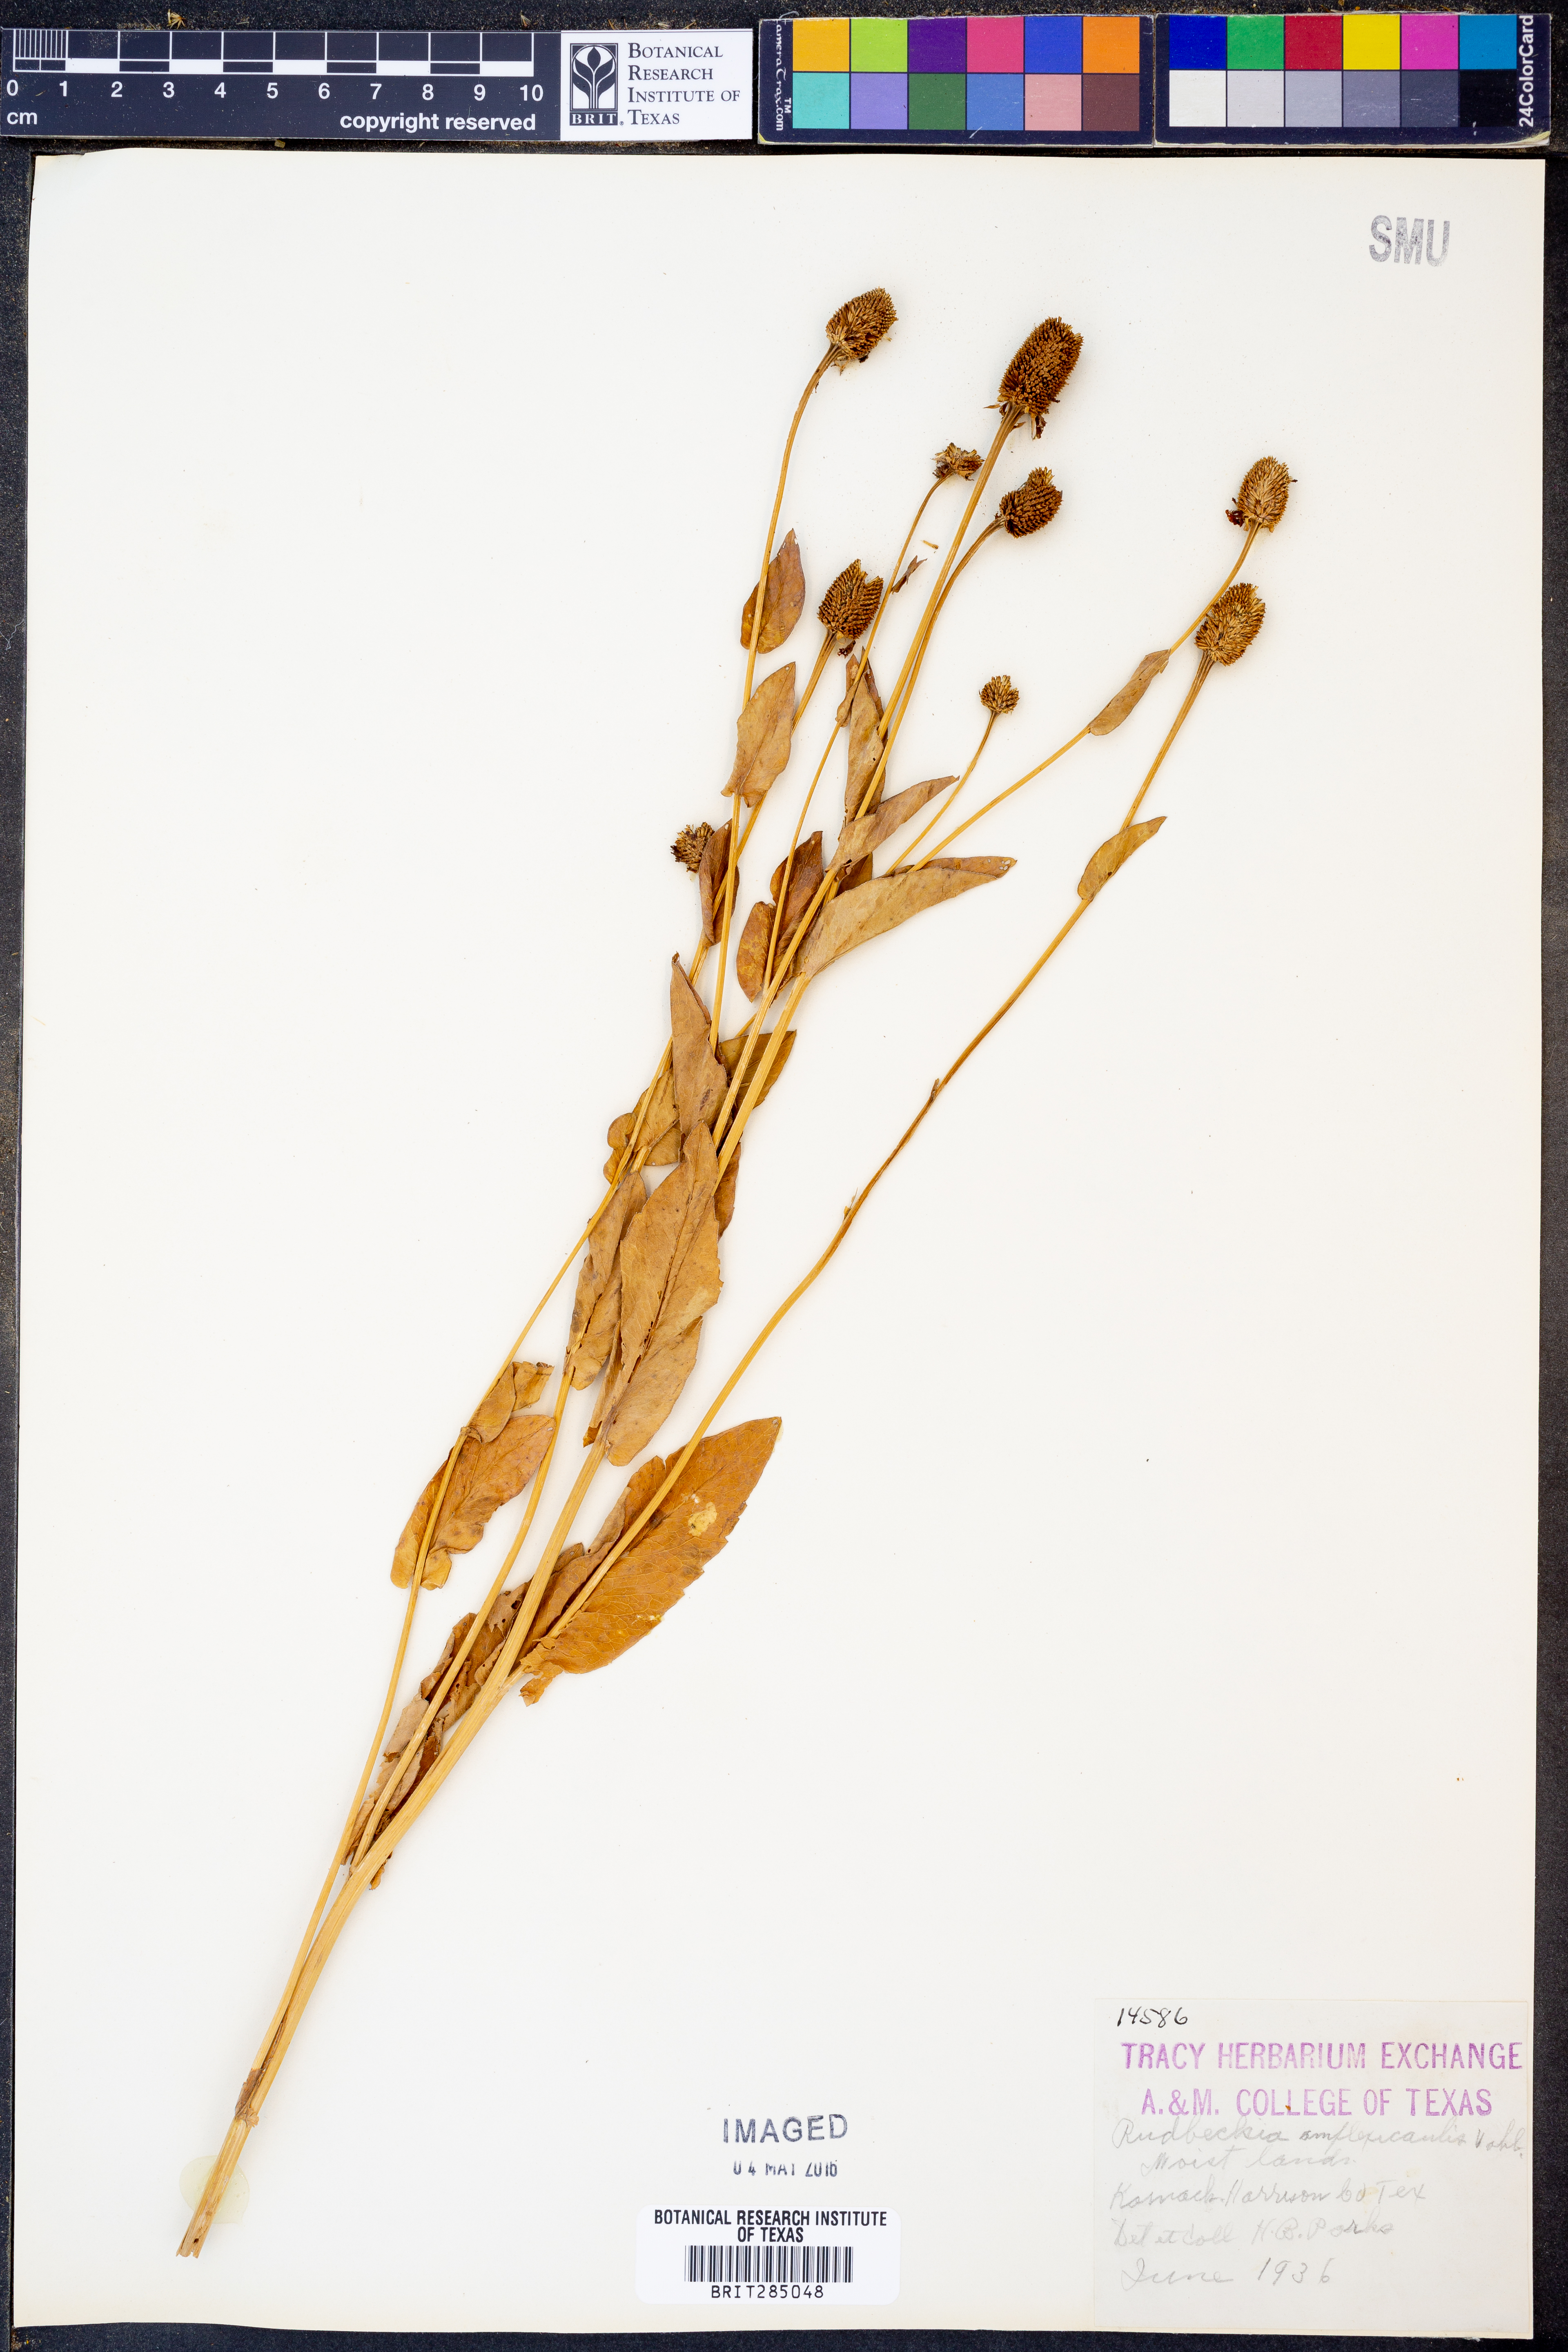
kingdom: Plantae
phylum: Tracheophyta
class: Magnoliopsida
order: Asterales
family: Asteraceae
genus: Rudbeckia
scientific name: Rudbeckia amplexicaulis
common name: Clasping-leaf coneflower
